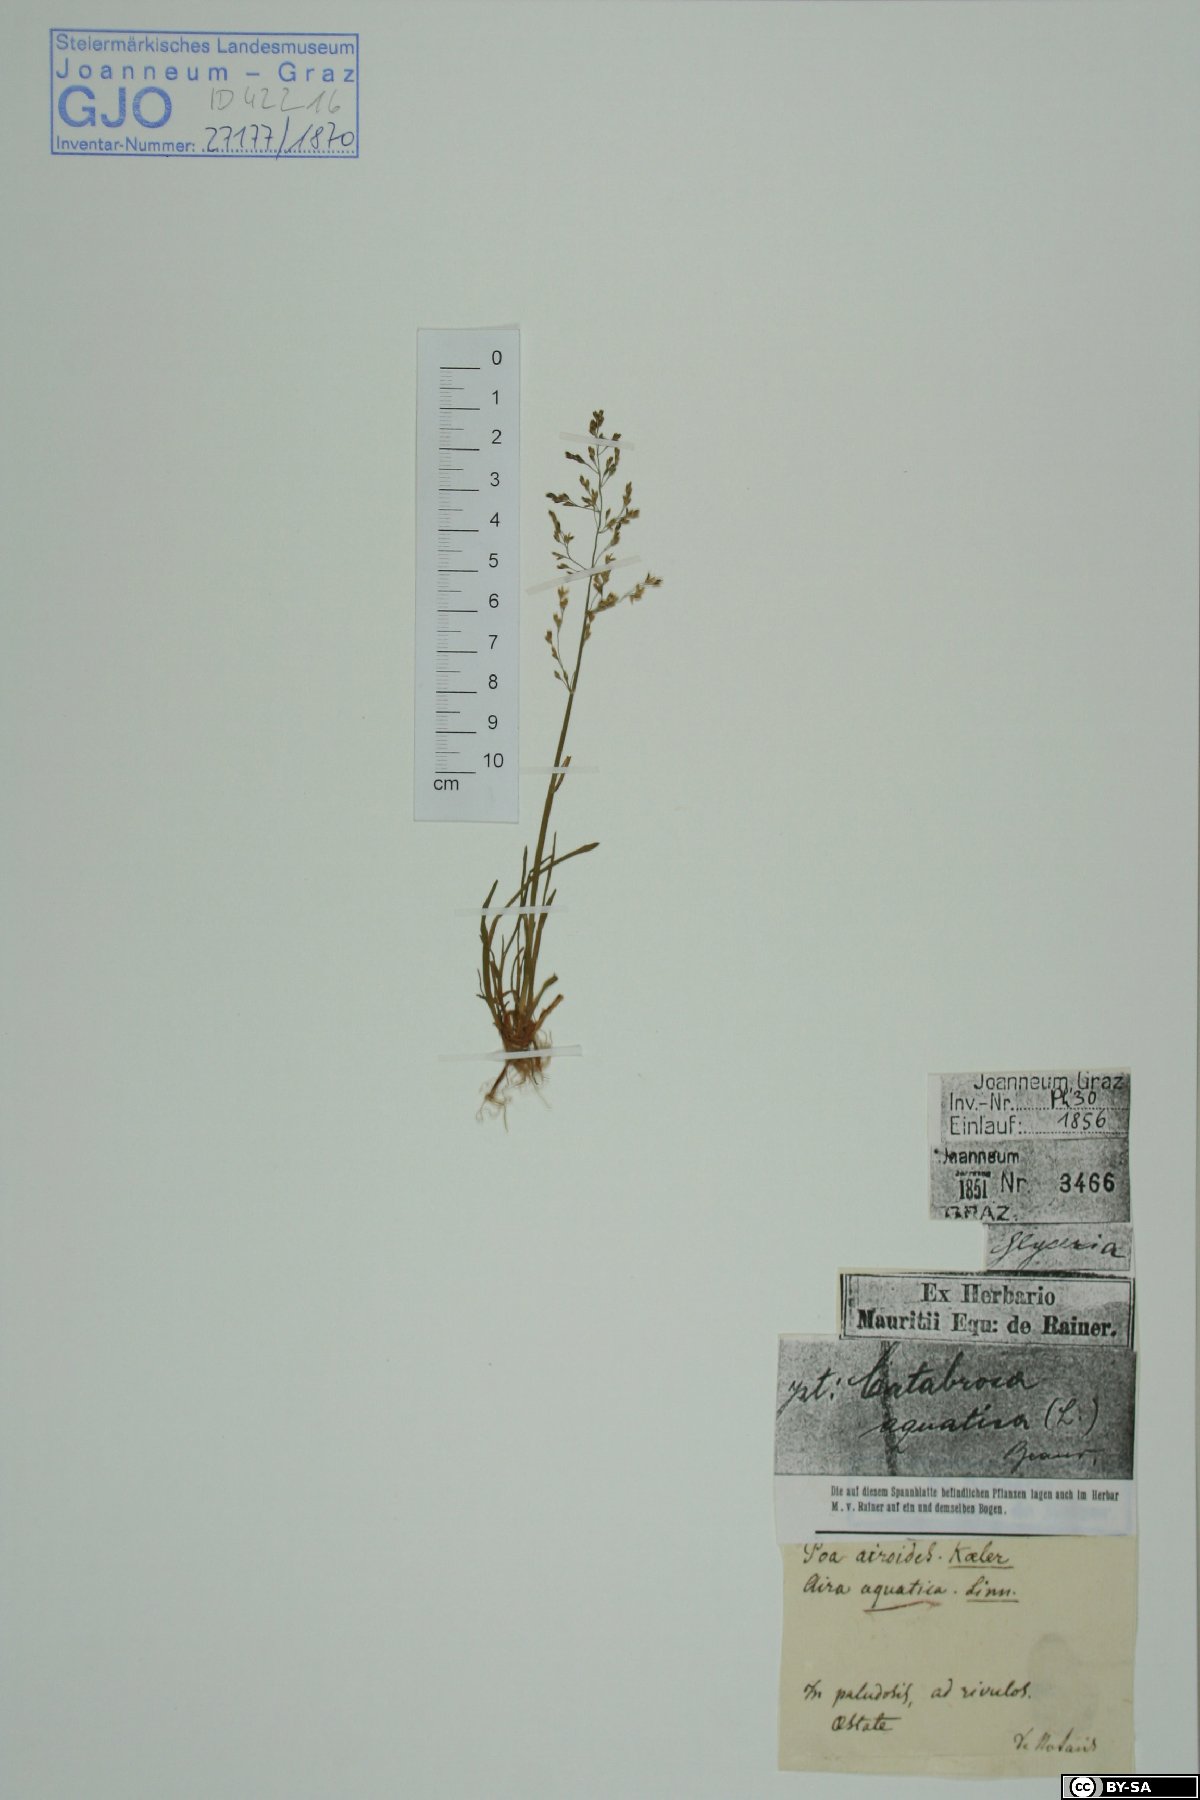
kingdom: Plantae
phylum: Tracheophyta
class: Liliopsida
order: Poales
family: Poaceae
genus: Catabrosa
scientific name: Catabrosa aquatica
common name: Whorl-grass
